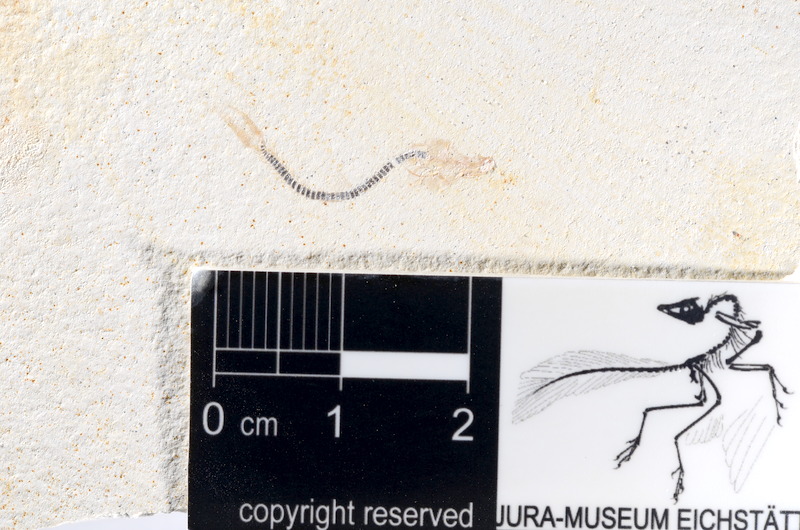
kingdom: Animalia
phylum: Chordata
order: Salmoniformes
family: Orthogonikleithridae
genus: Orthogonikleithrus
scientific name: Orthogonikleithrus hoelli
